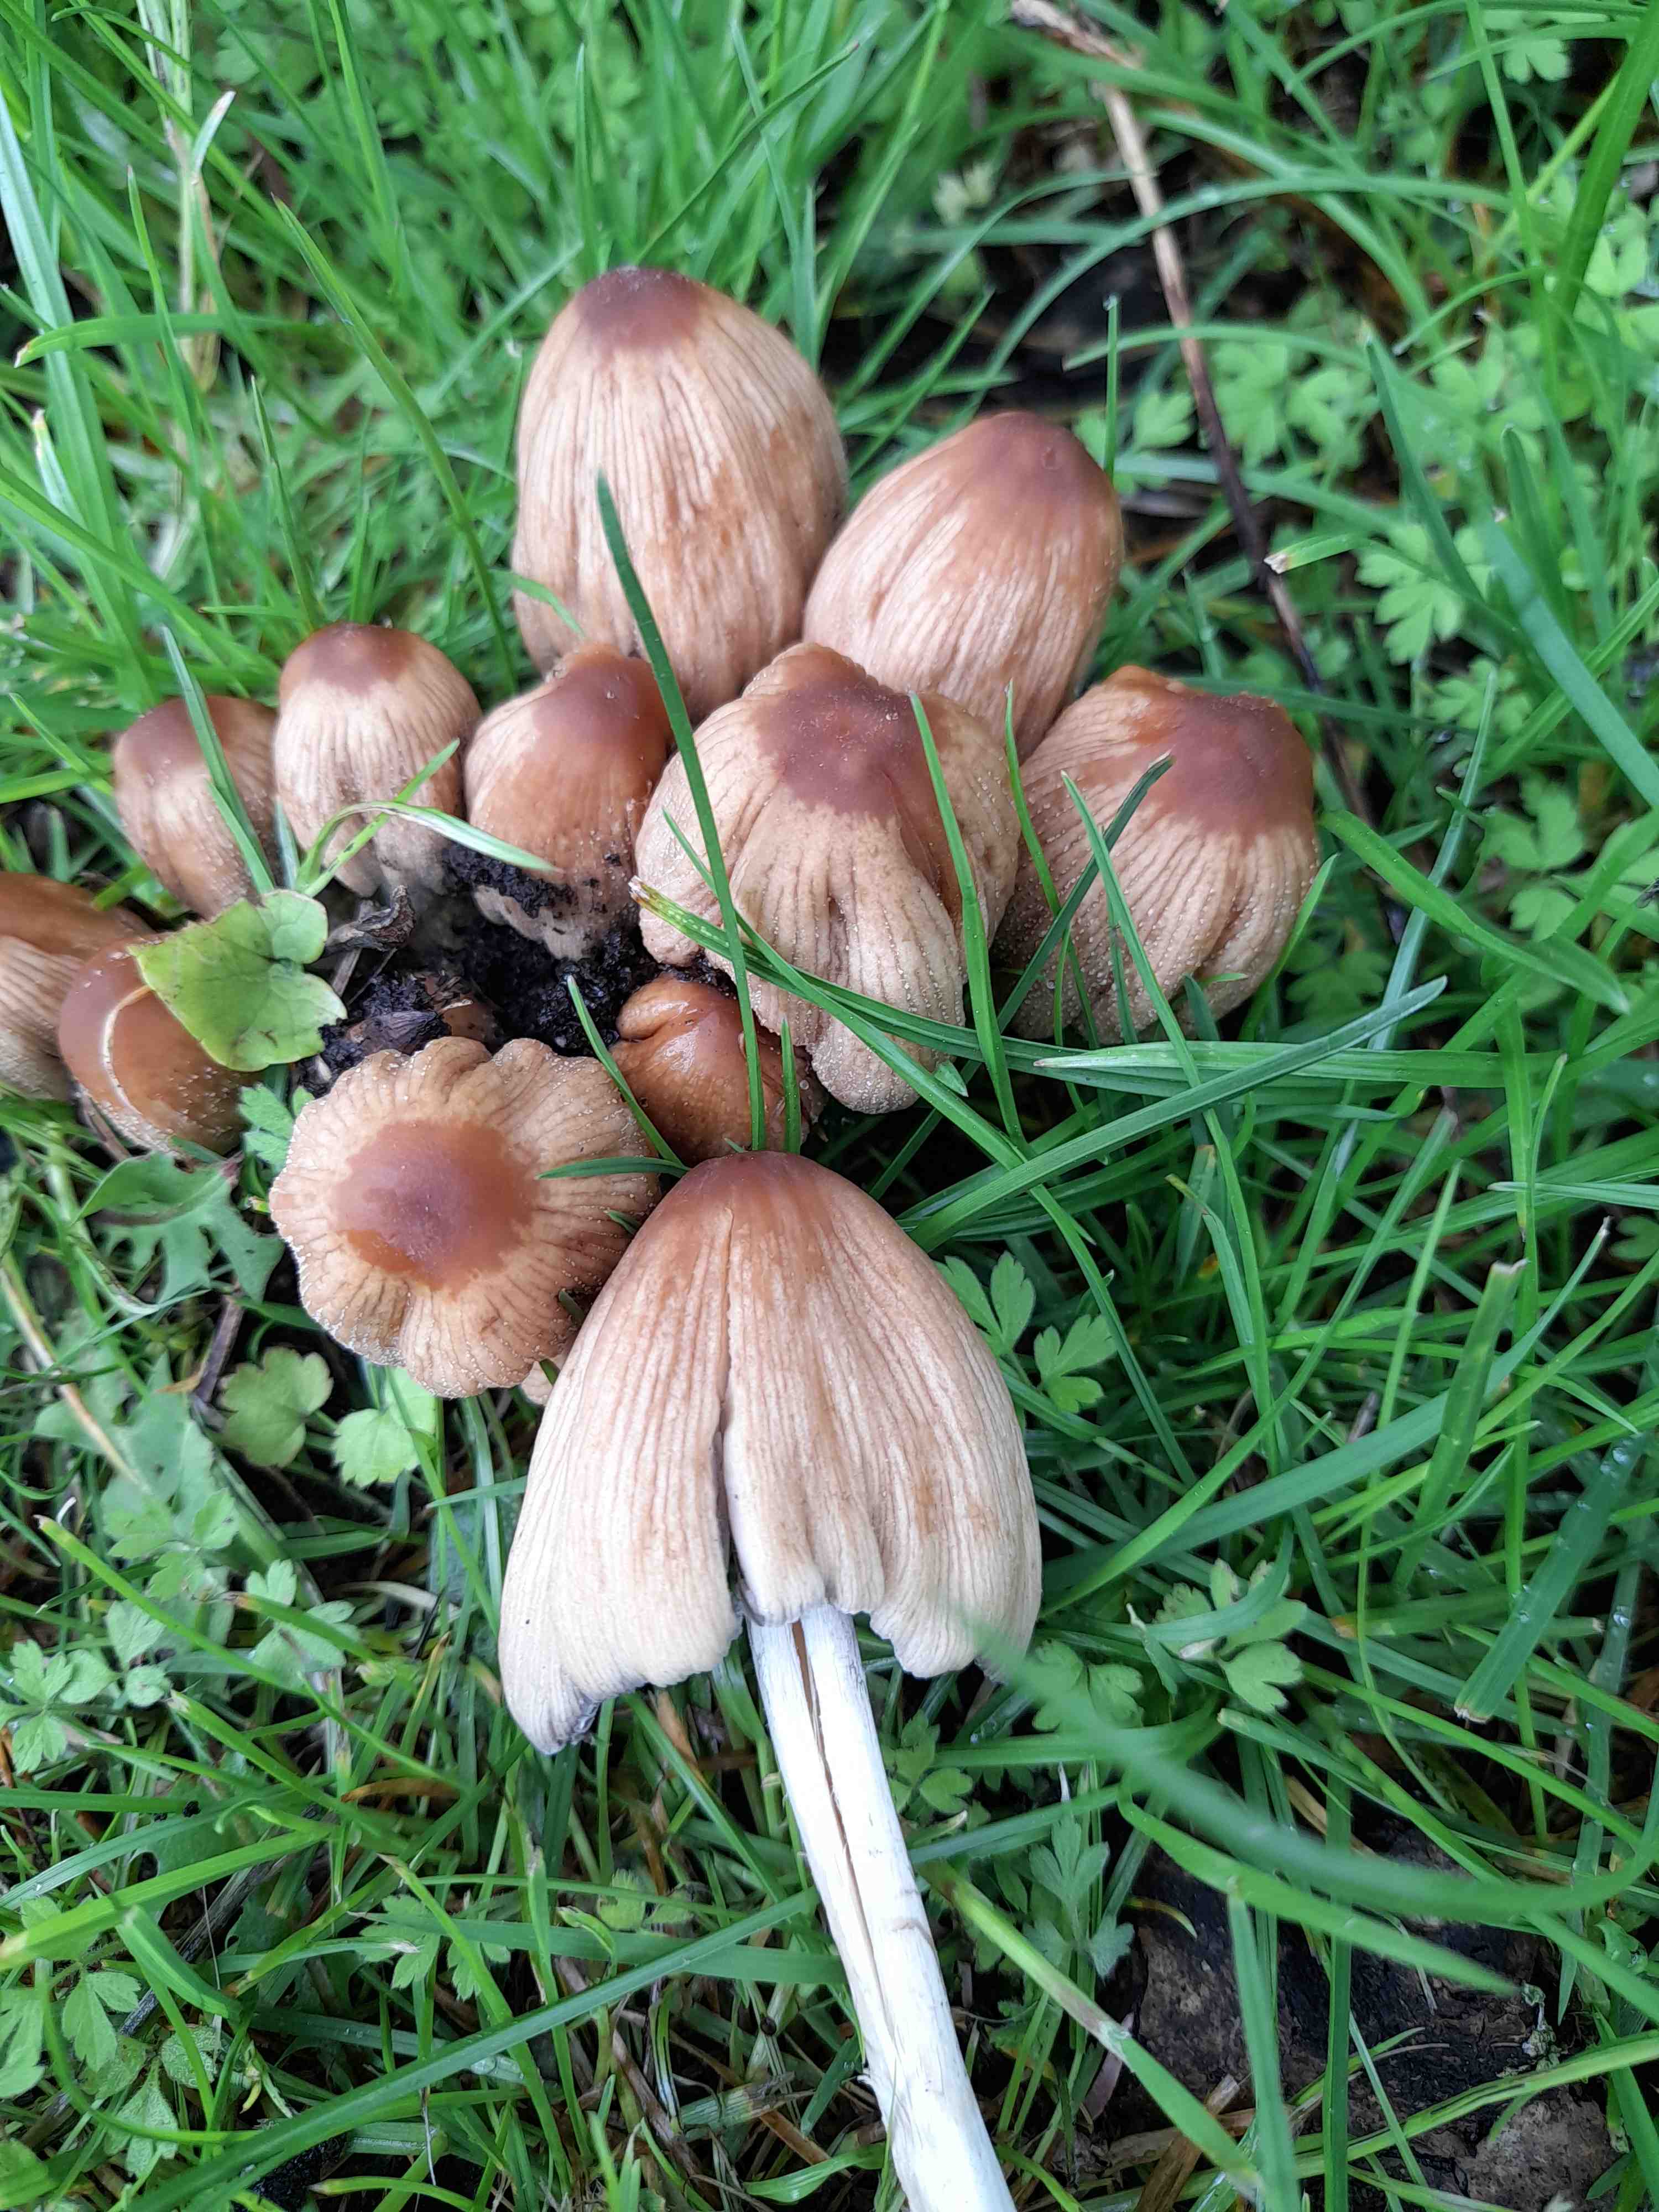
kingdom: Fungi
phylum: Basidiomycota
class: Agaricomycetes
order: Agaricales
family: Psathyrellaceae
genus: Coprinellus
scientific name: Coprinellus micaceus
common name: glimmer-blækhat
